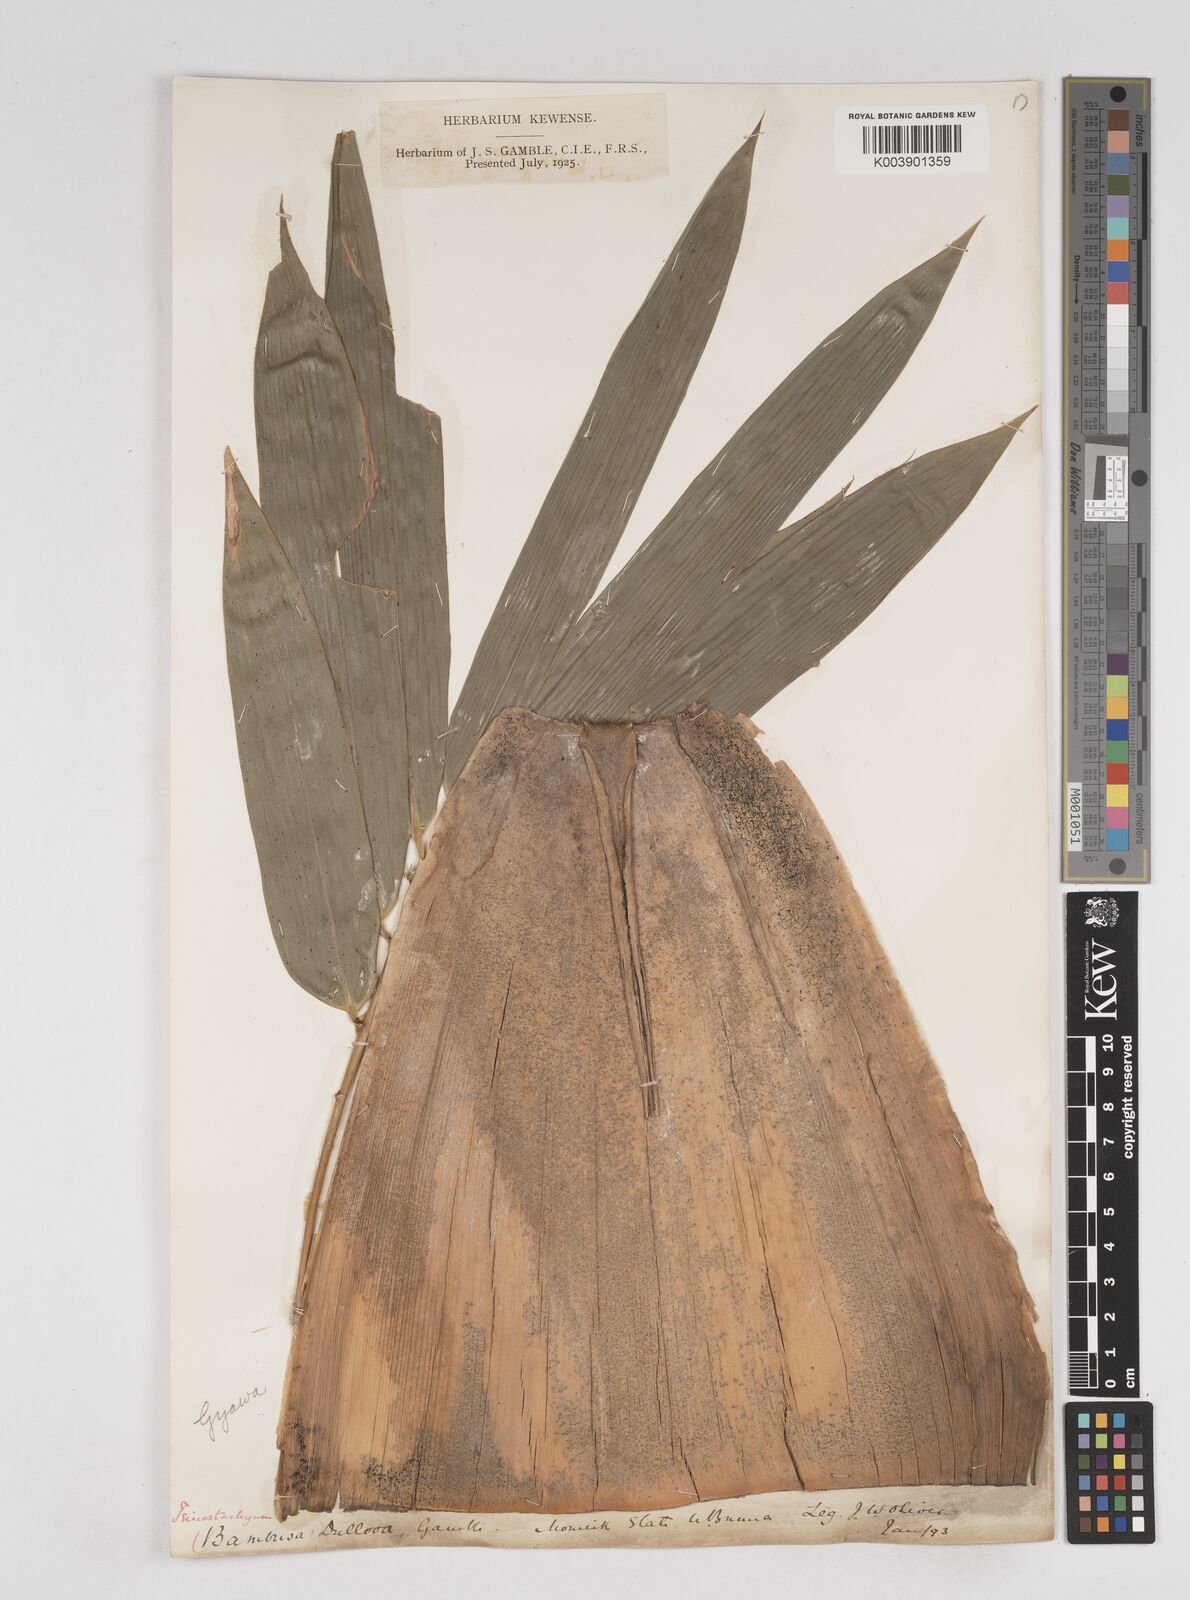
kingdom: Plantae
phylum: Tracheophyta
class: Liliopsida
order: Poales
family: Poaceae
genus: Schizostachyum
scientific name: Schizostachyum dullooa
